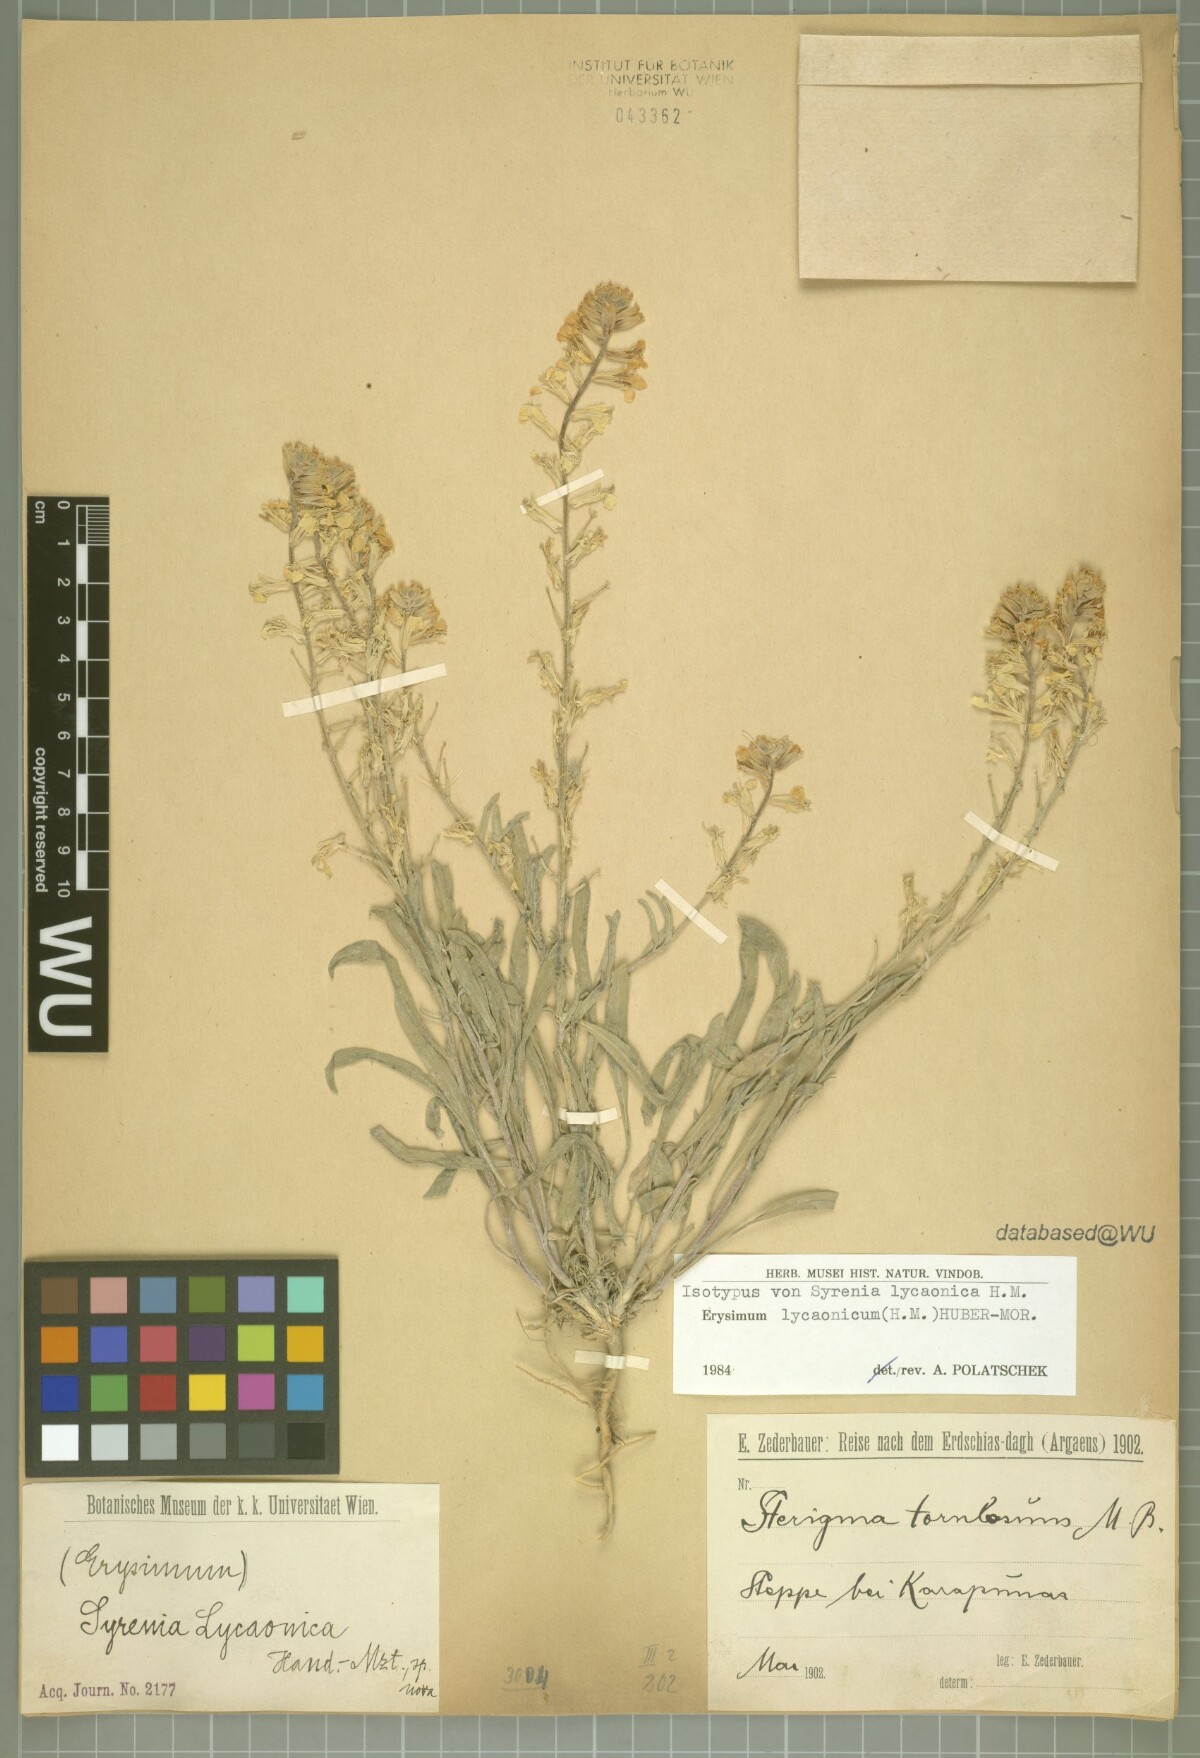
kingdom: Plantae
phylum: Tracheophyta
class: Magnoliopsida
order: Brassicales
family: Brassicaceae
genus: Erysimum
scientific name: Erysimum lycaonicum
